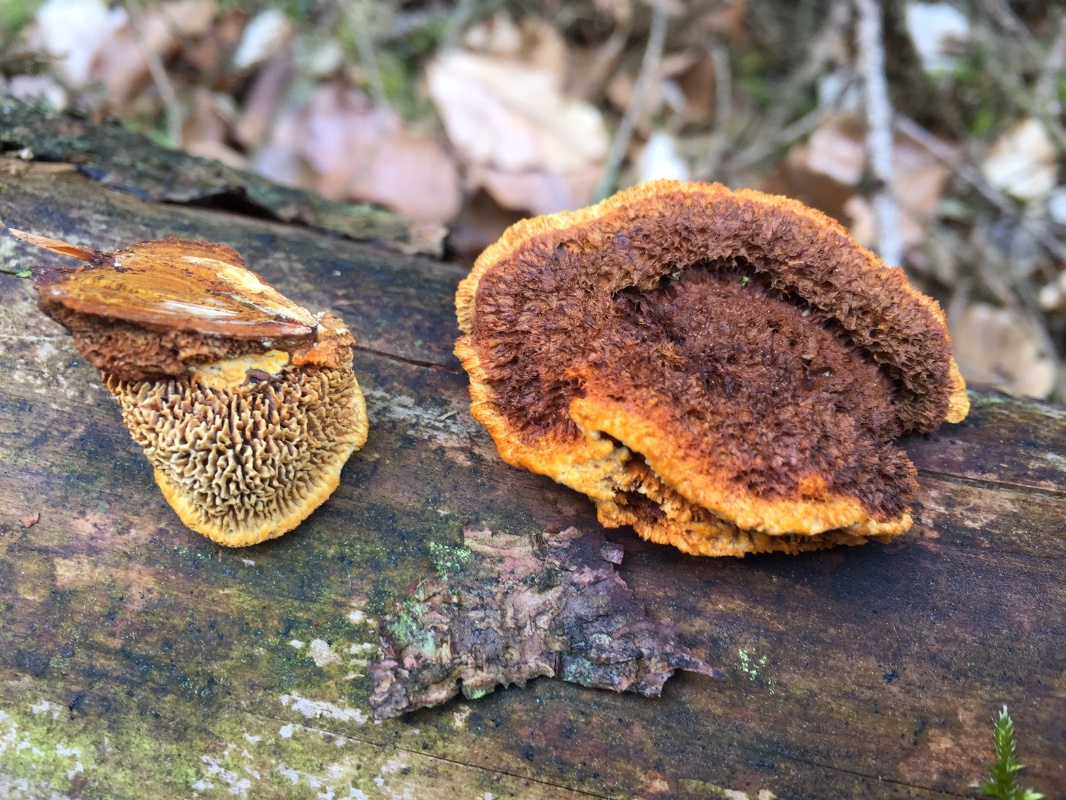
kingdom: Fungi
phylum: Basidiomycota
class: Agaricomycetes
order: Gloeophyllales
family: Gloeophyllaceae
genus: Gloeophyllum
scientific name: Gloeophyllum sepiarium
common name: fyrre-korkhat
